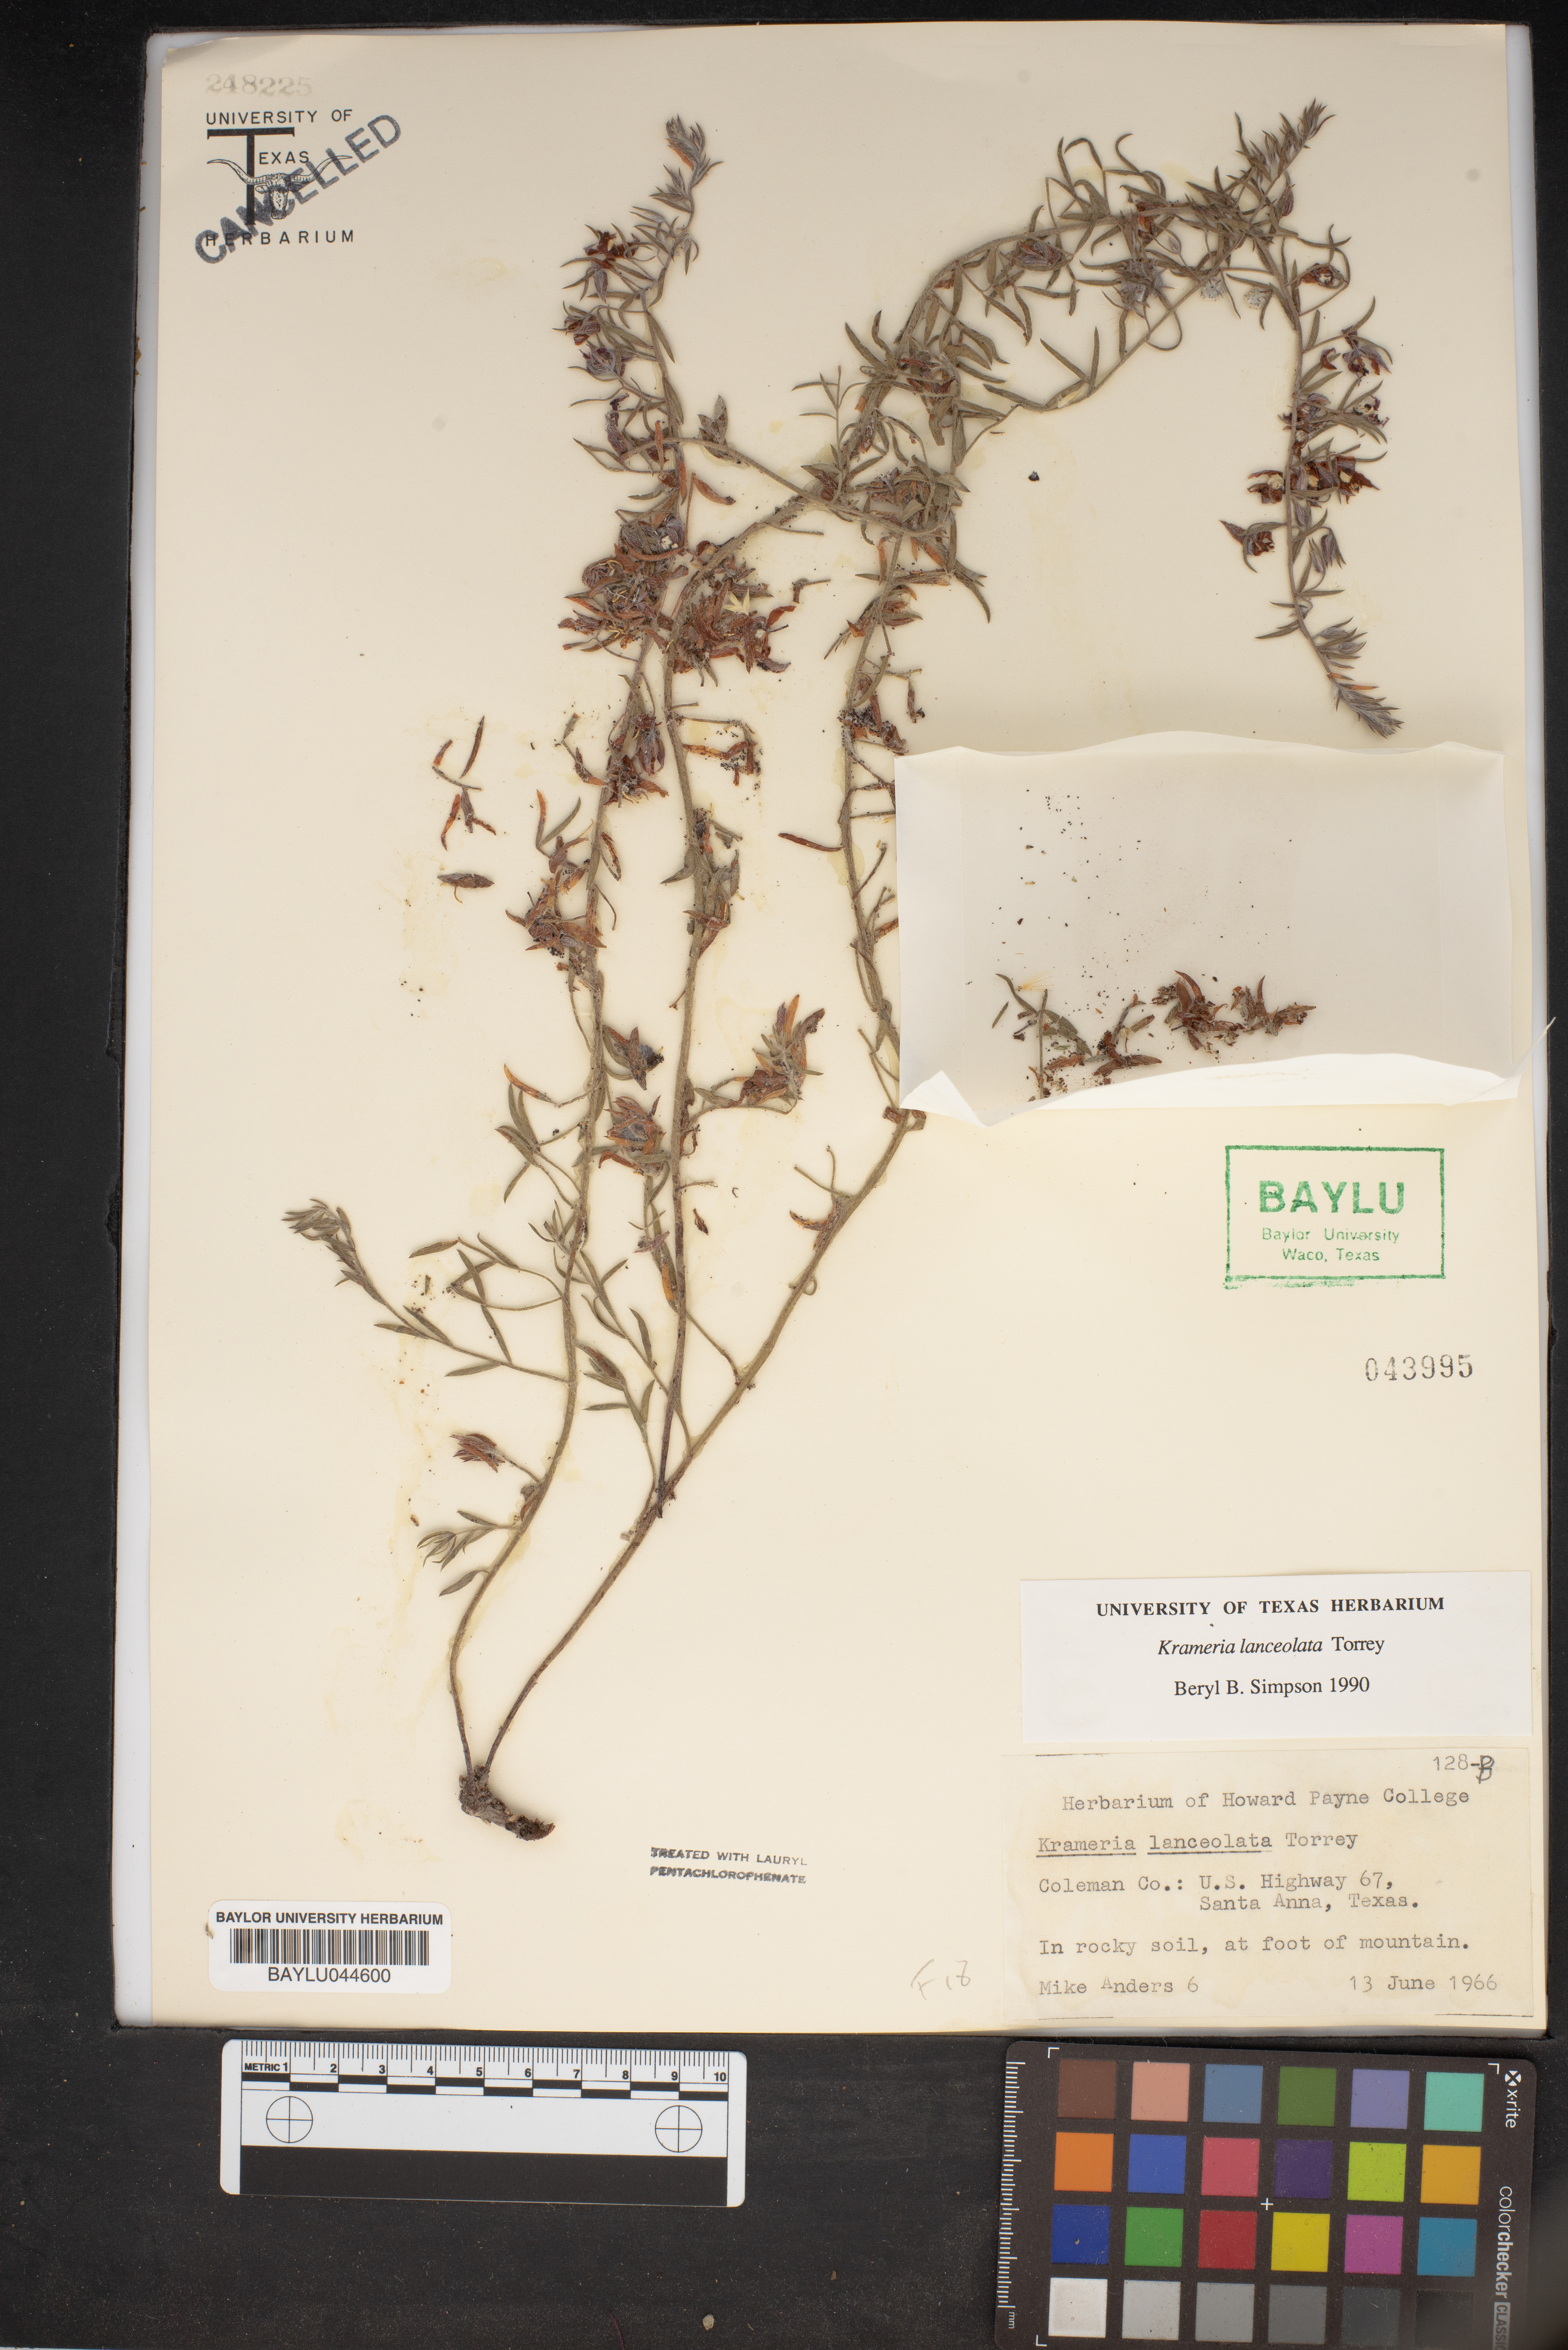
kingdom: Plantae
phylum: Tracheophyta
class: Magnoliopsida
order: Zygophyllales
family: Krameriaceae
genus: Krameria
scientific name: Krameria lanceolata
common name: Ratany
